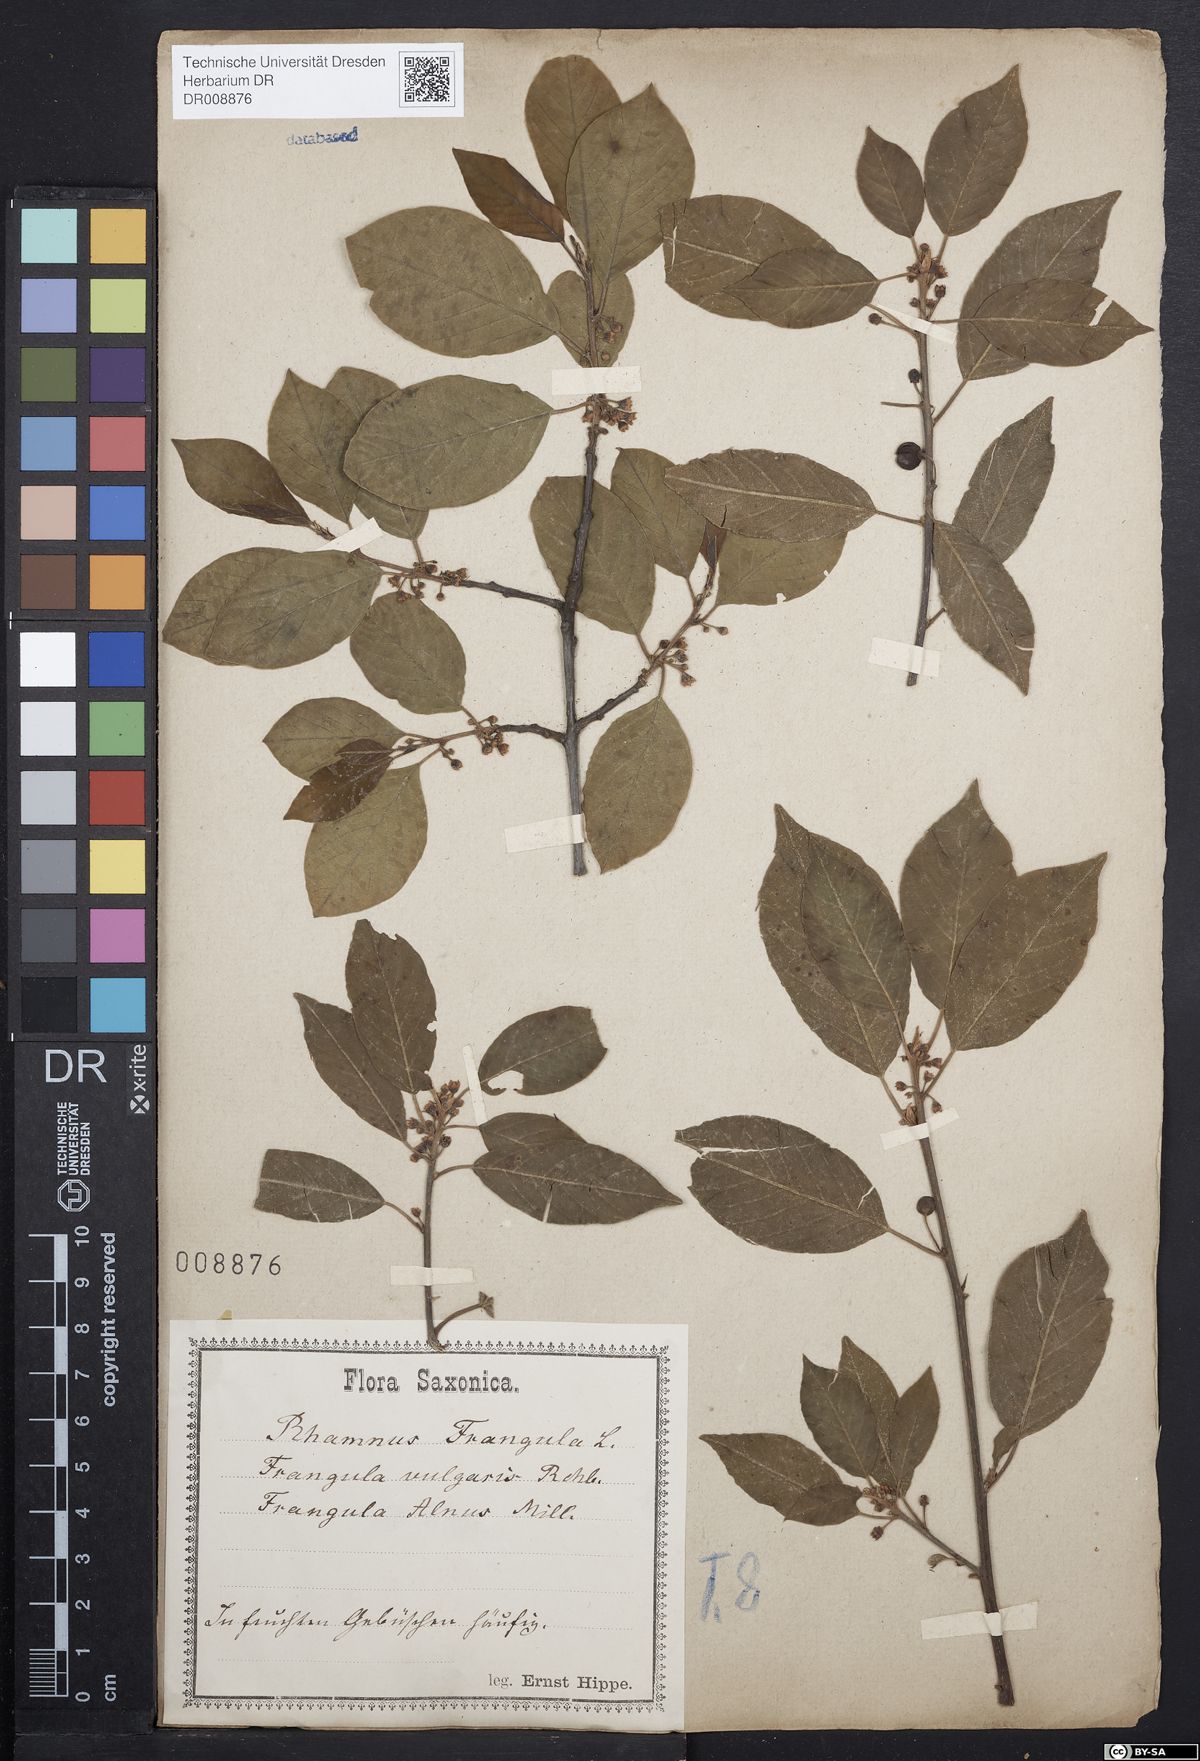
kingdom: Plantae
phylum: Tracheophyta
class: Magnoliopsida
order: Rosales
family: Rhamnaceae
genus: Frangula
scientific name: Frangula alnus
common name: Alder buckthorn
